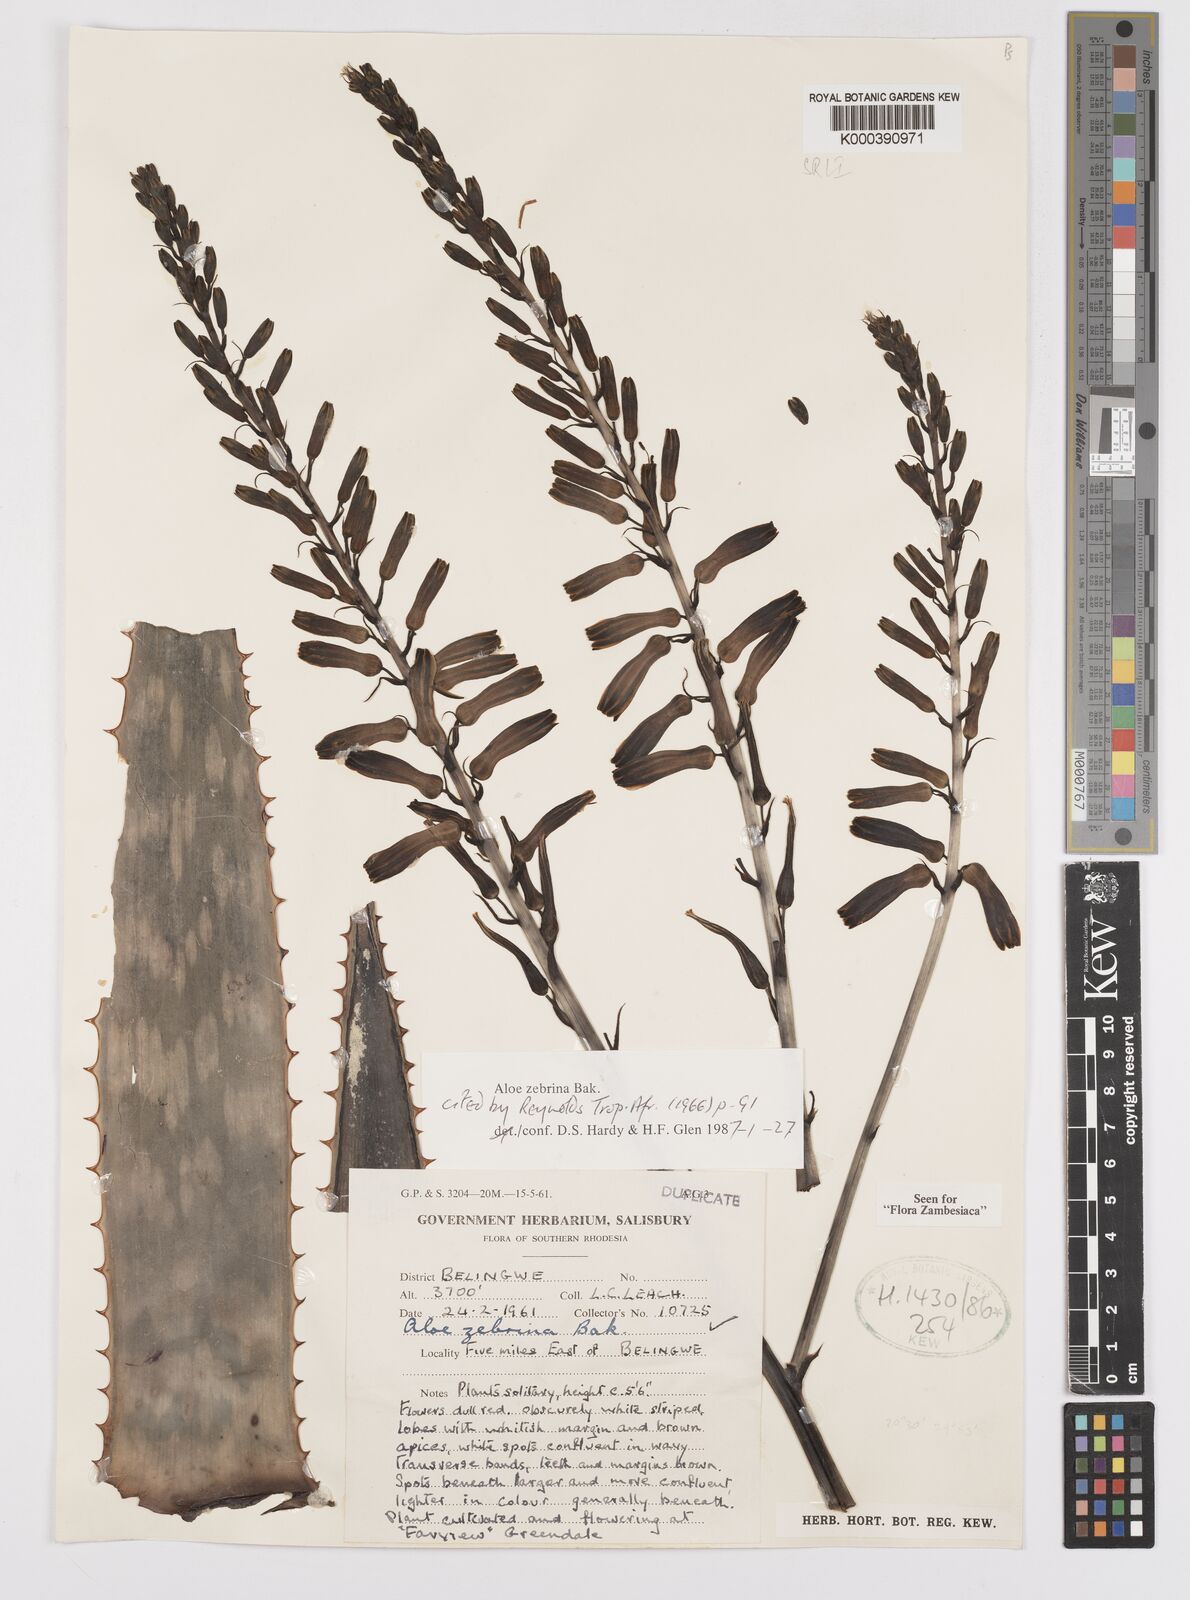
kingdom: Plantae
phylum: Tracheophyta
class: Liliopsida
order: Asparagales
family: Asphodelaceae
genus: Aloe
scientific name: Aloe zebrina
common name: Zebra-leaf aloe
